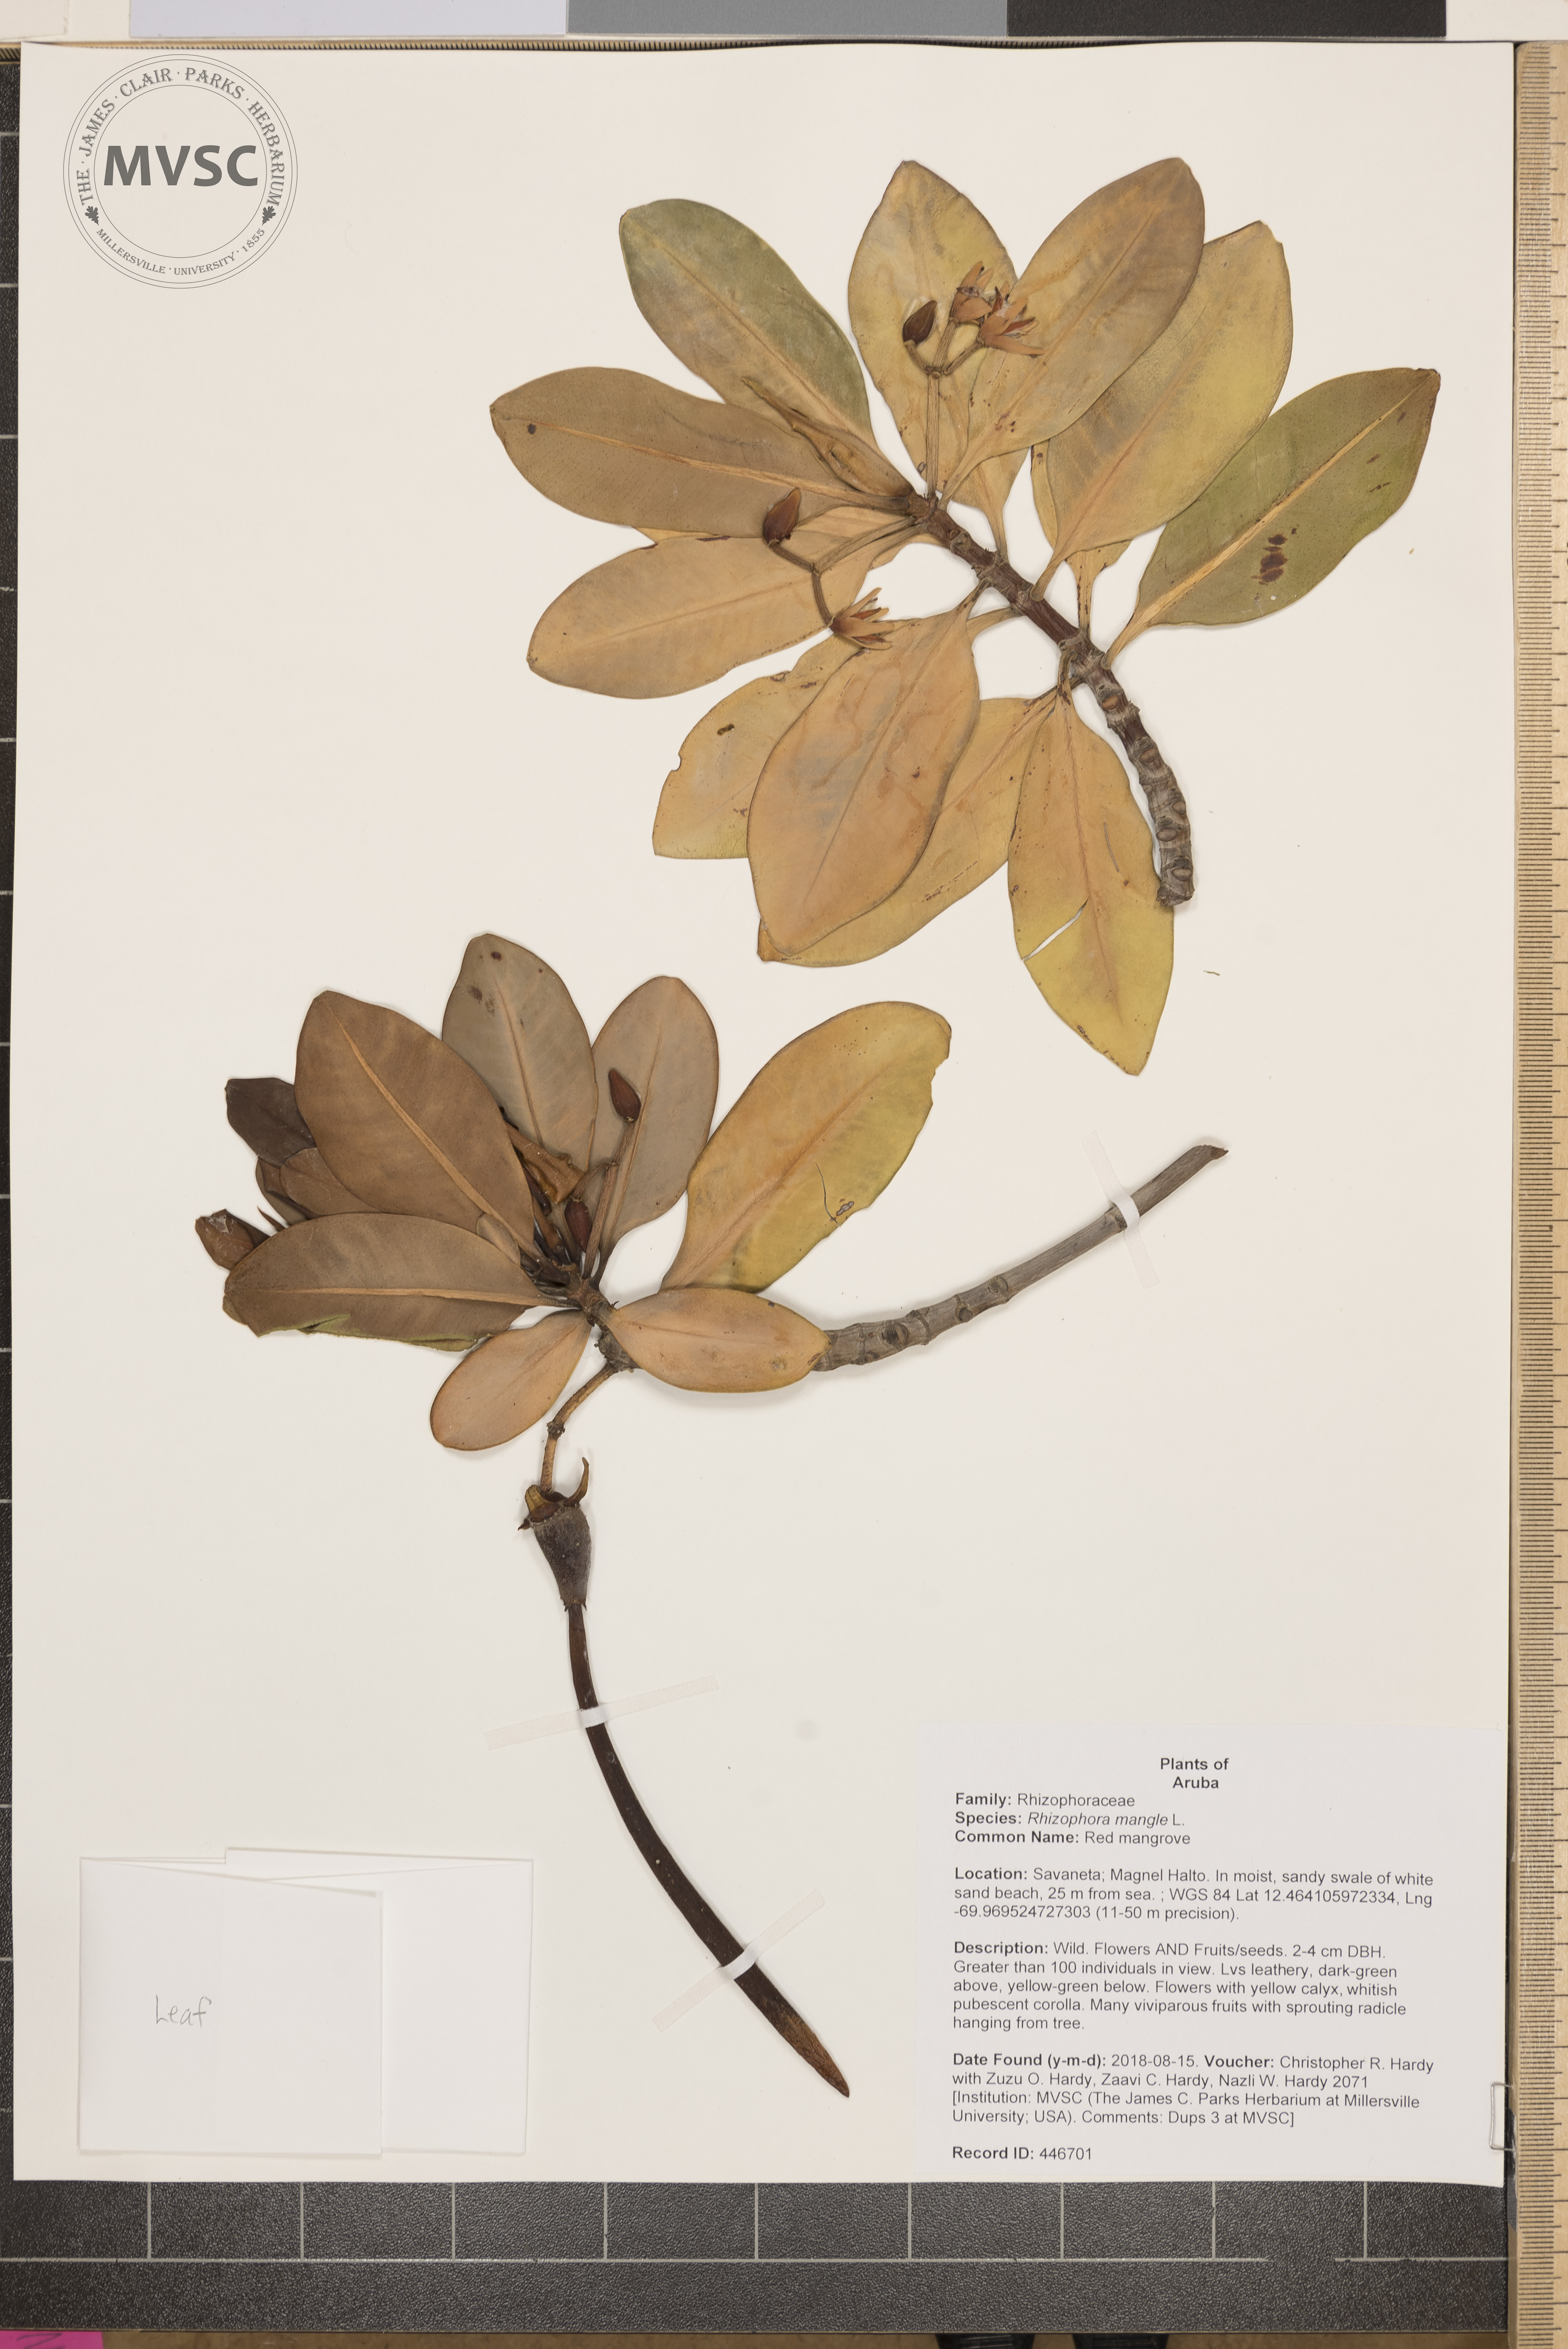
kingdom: Plantae
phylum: Tracheophyta
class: Magnoliopsida
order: Malpighiales
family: Rhizophoraceae
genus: Rhizophora
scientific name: Rhizophora mangle
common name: Red mangrove
